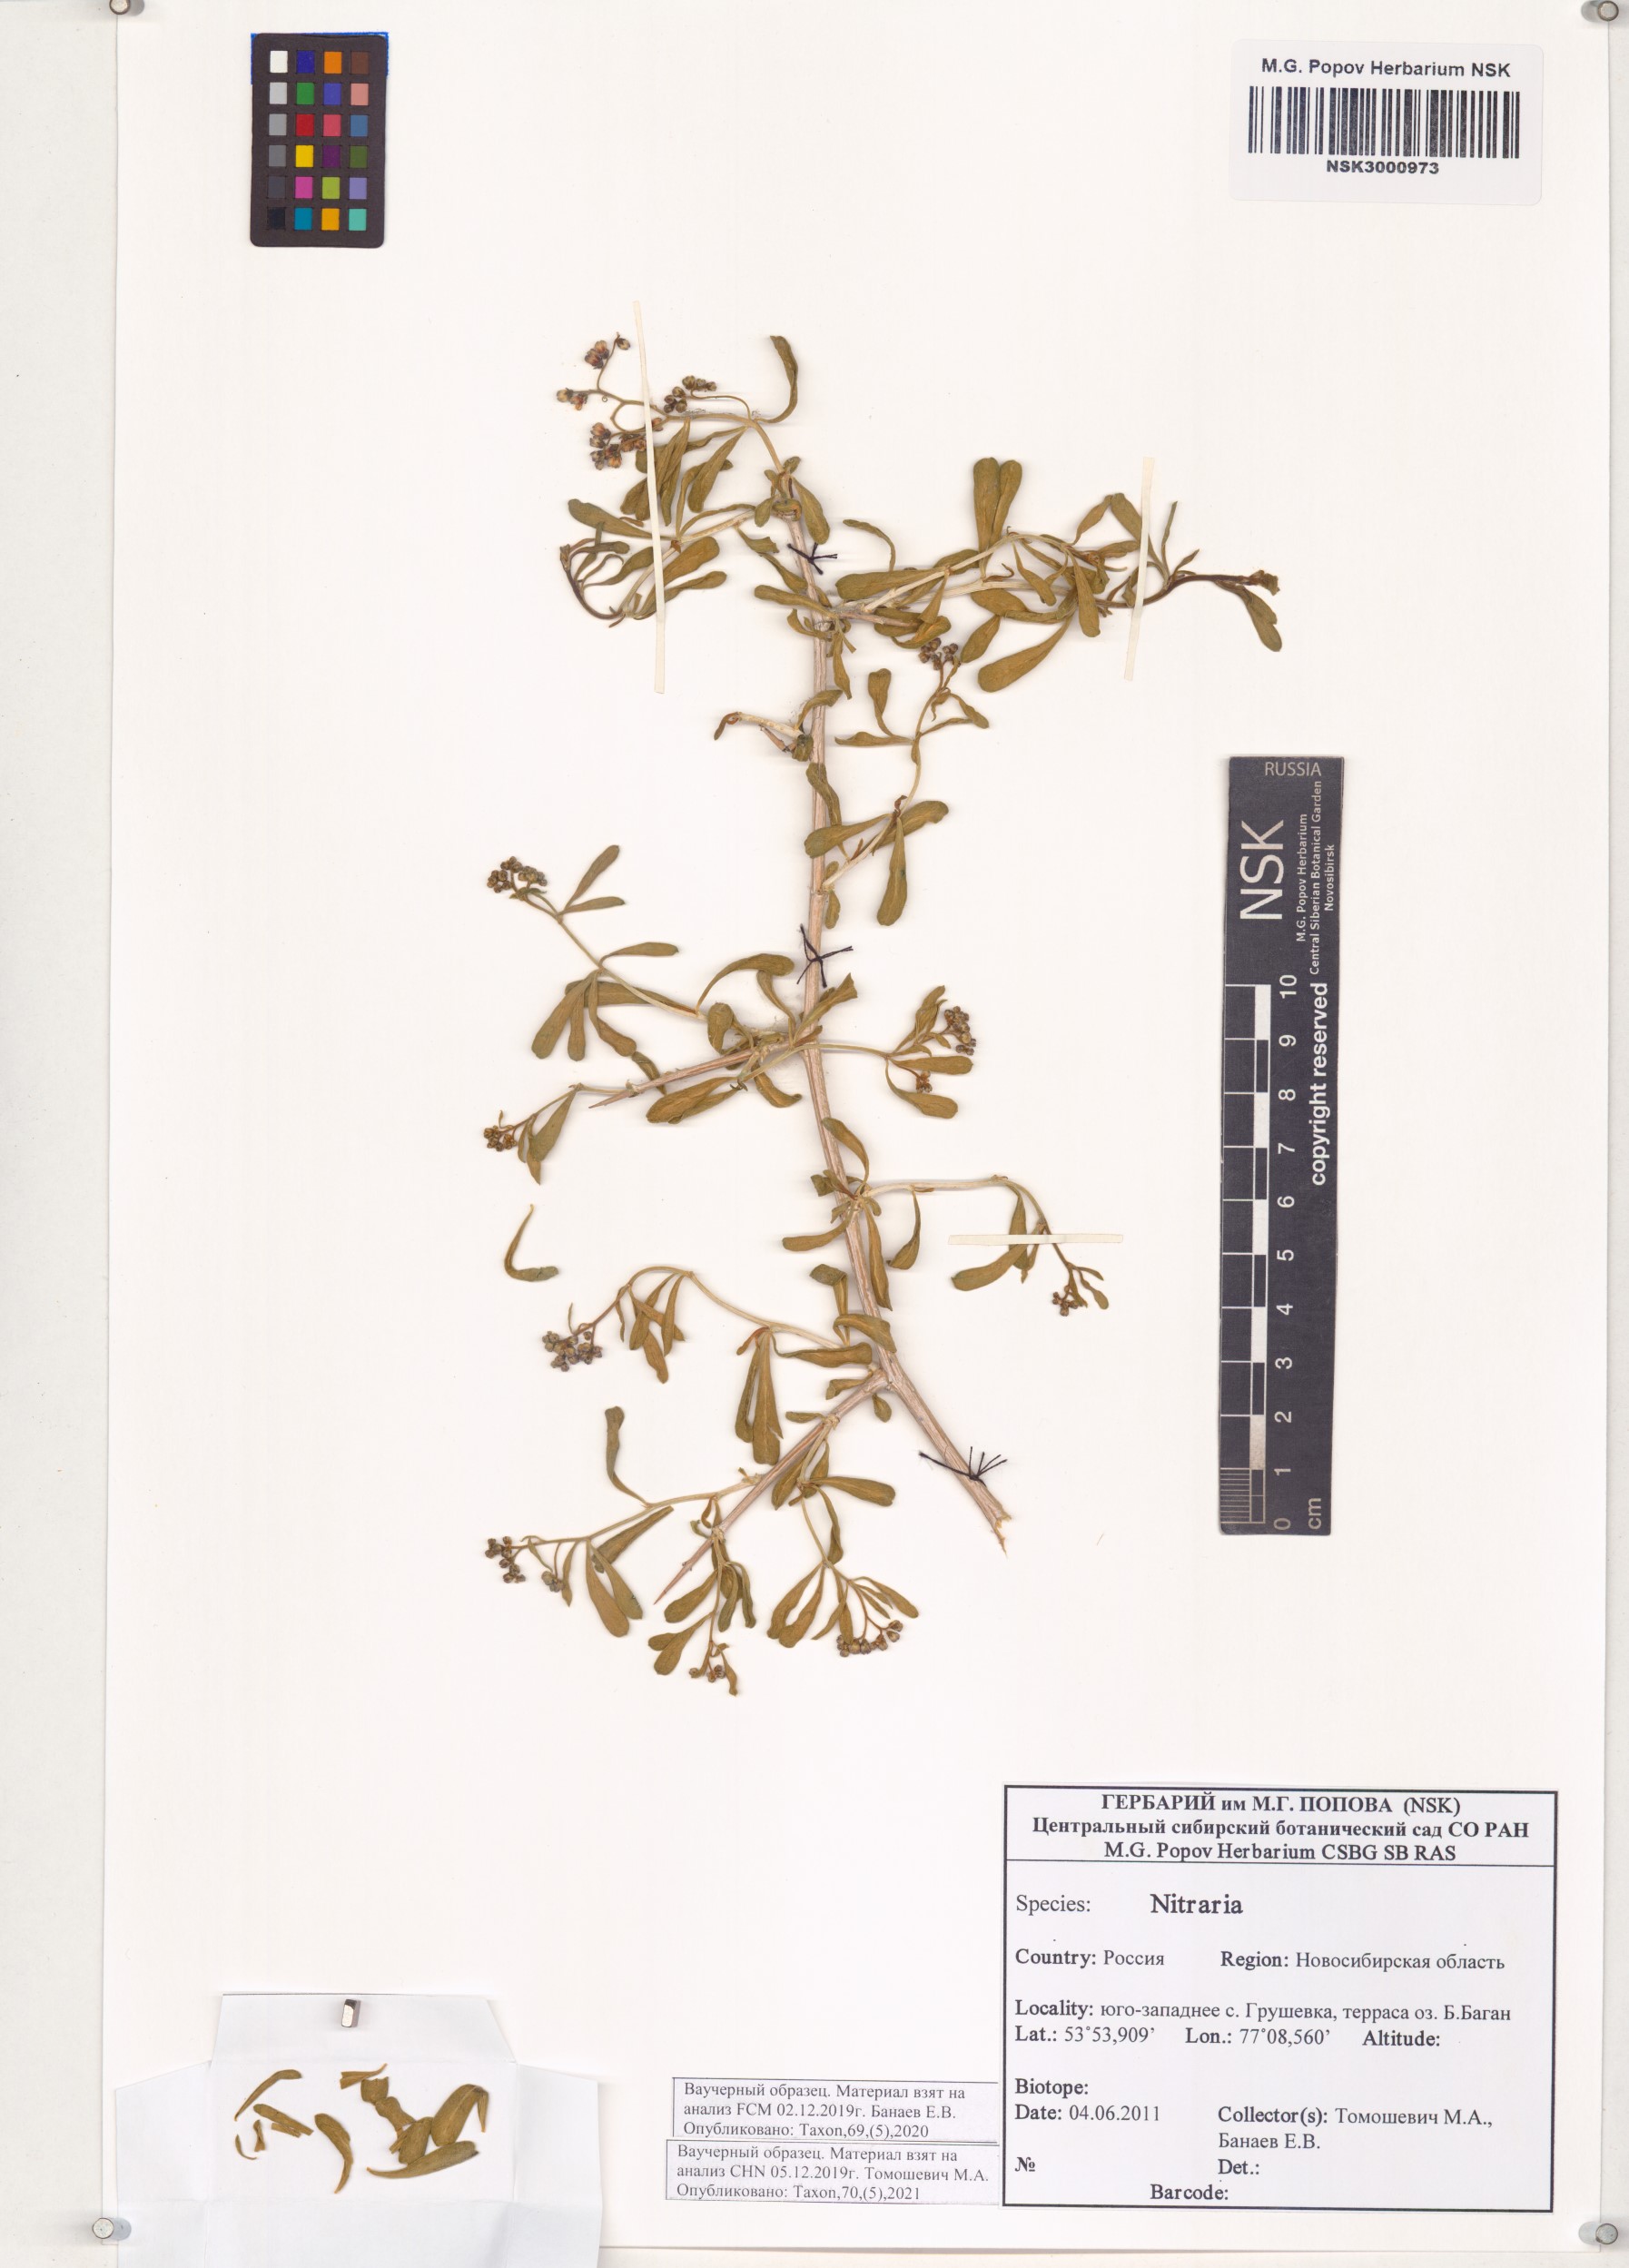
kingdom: Plantae
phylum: Tracheophyta
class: Magnoliopsida
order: Sapindales
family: Nitrariaceae
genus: Nitraria
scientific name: Nitraria
